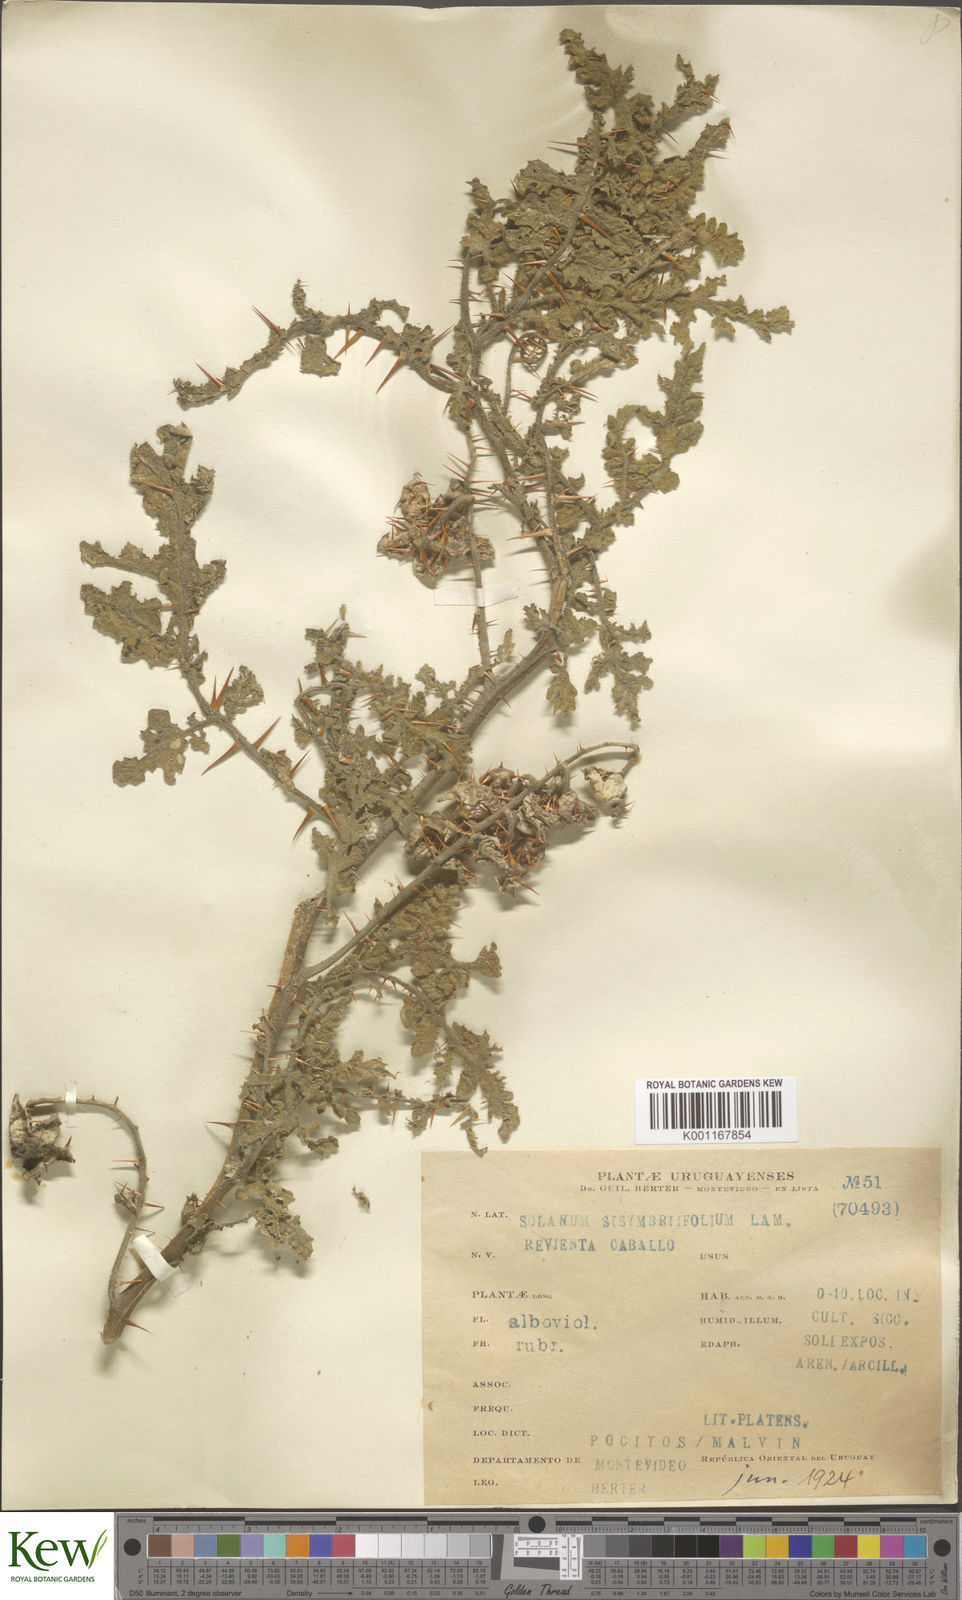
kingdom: Plantae
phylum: Tracheophyta
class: Magnoliopsida
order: Solanales
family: Solanaceae
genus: Solanum
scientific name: Solanum sisymbriifolium
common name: Red buffalo-bur
